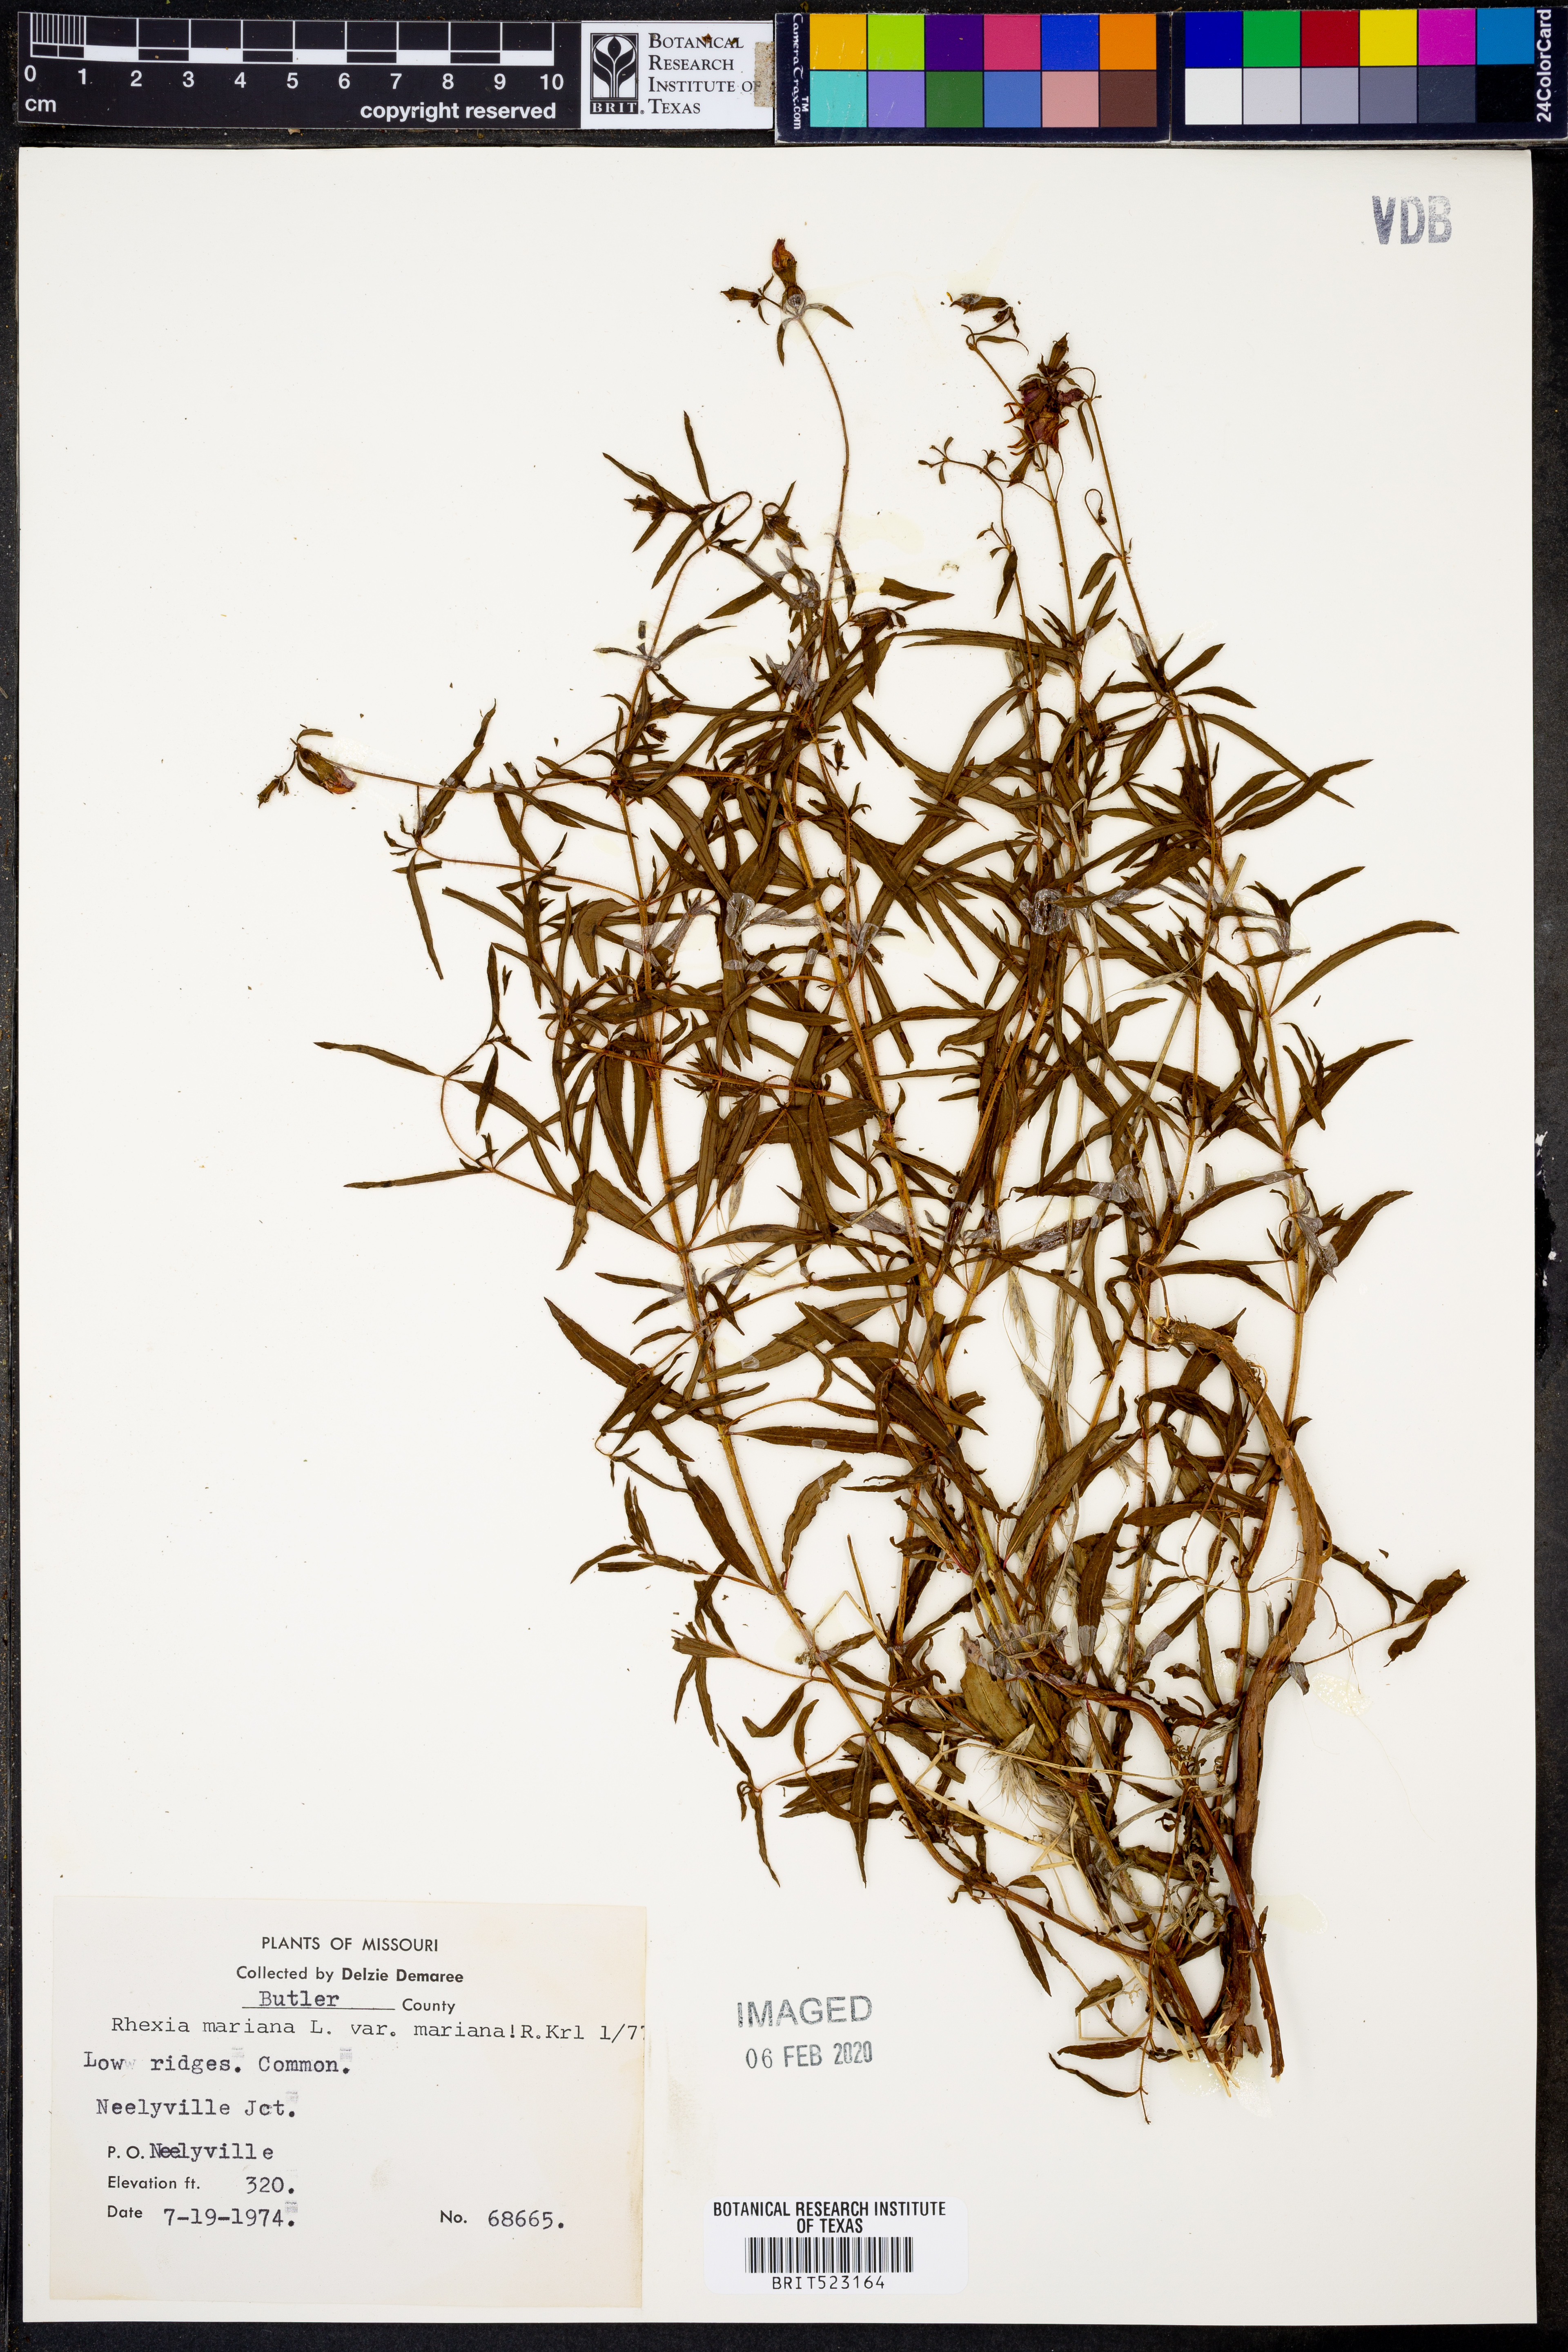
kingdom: Plantae
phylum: Tracheophyta
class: Magnoliopsida
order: Myrtales
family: Melastomataceae
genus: Rhexia
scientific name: Rhexia mariana
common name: Dull meadow-pitcher
